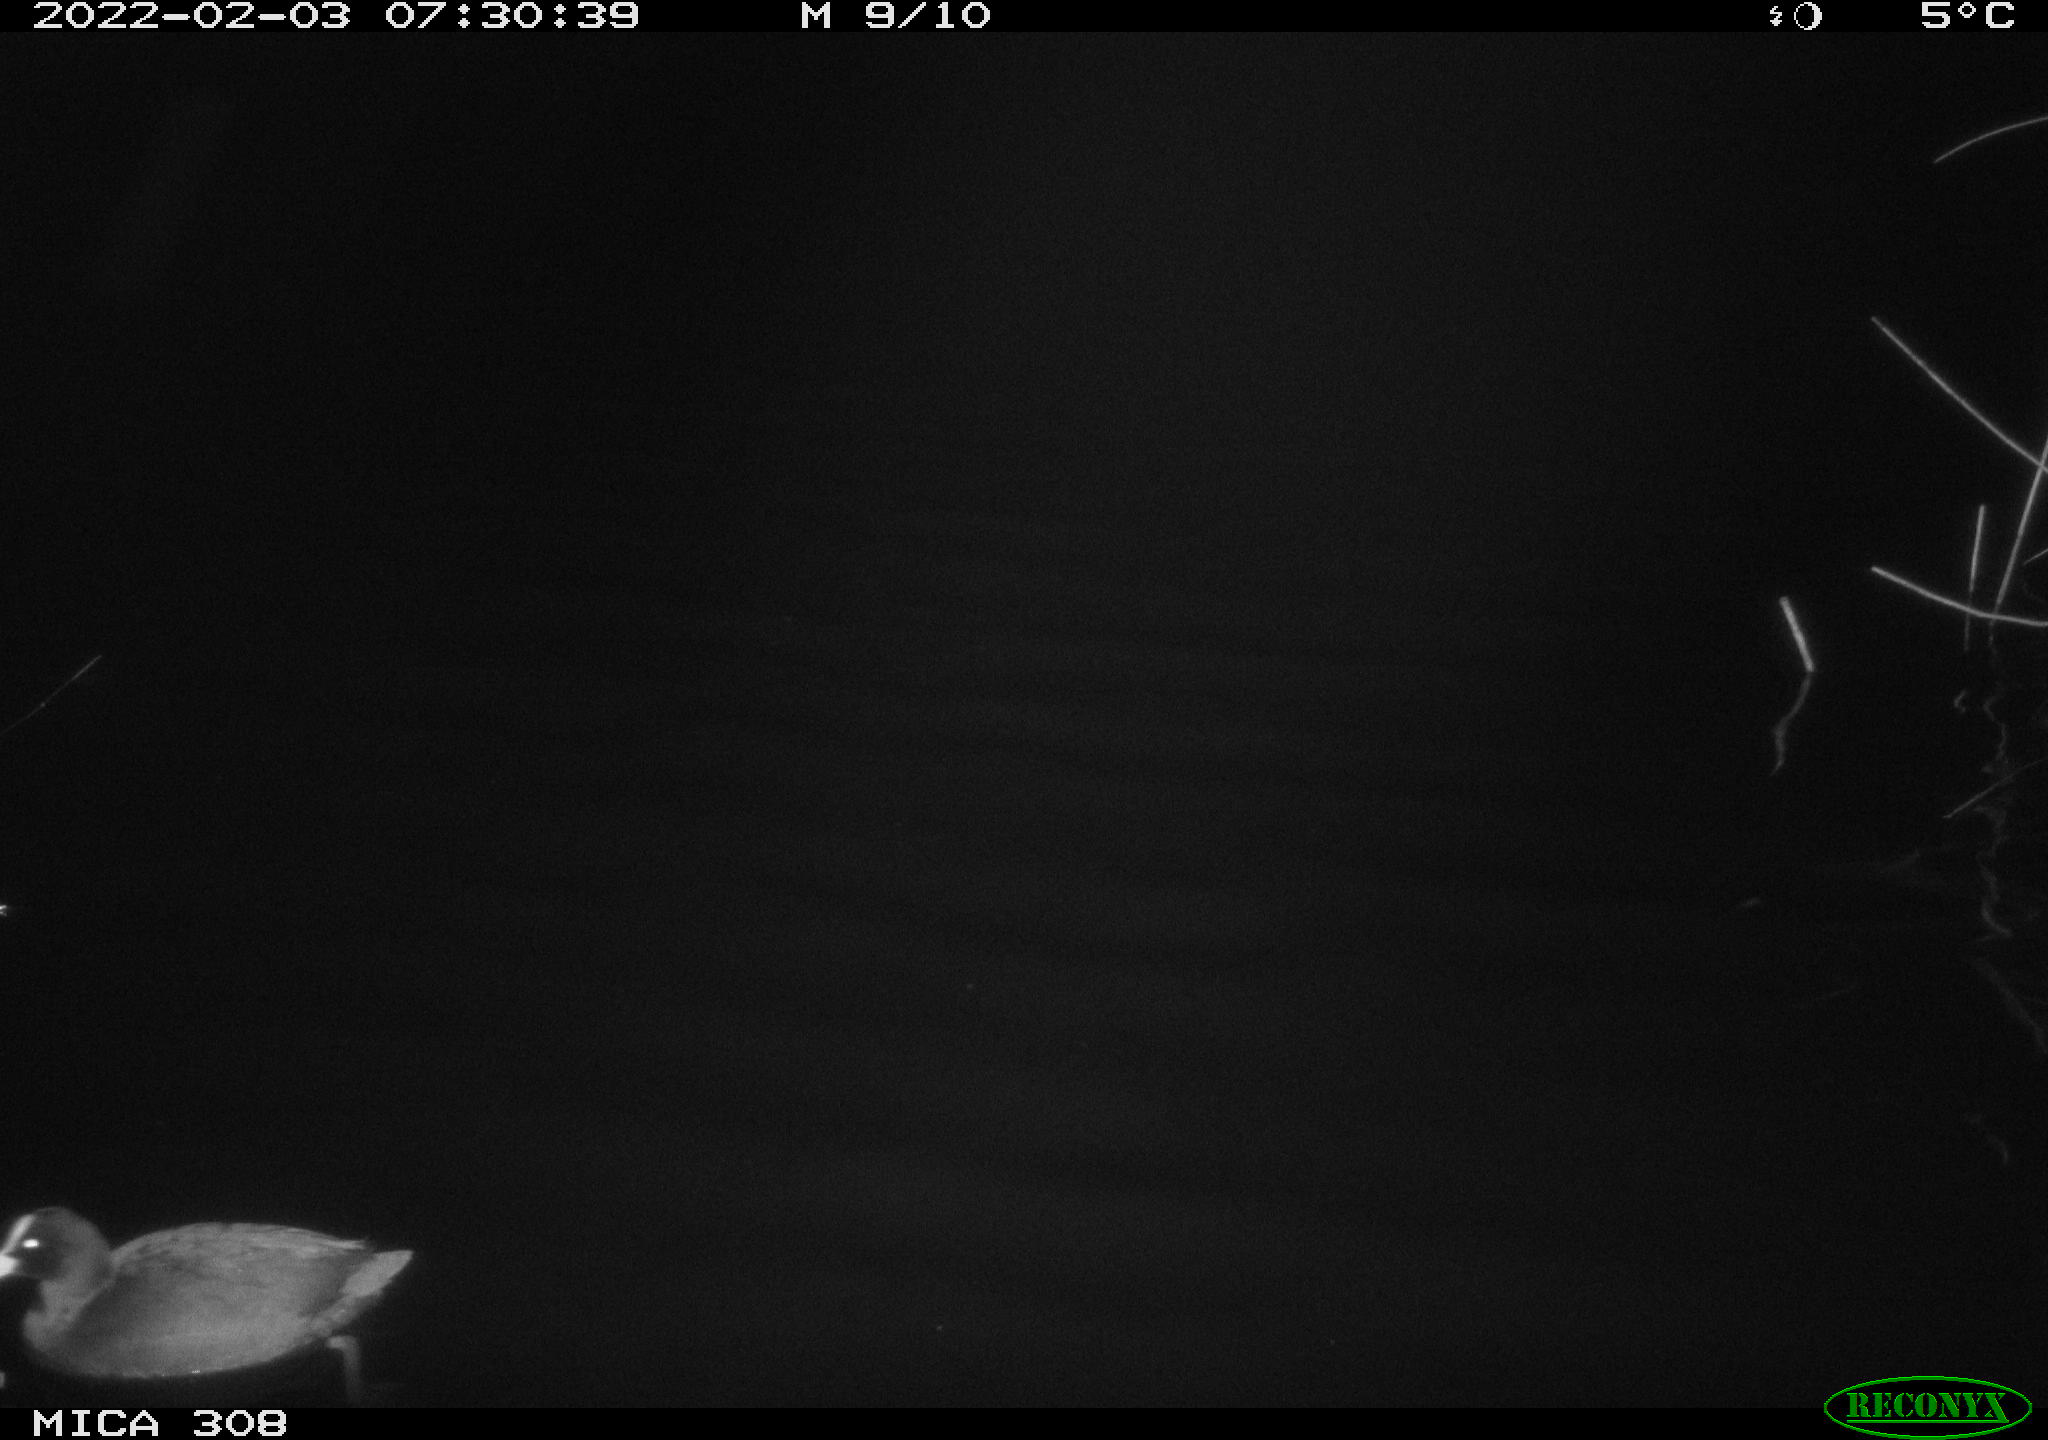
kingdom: Animalia
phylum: Chordata
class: Aves
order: Gruiformes
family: Rallidae
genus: Gallinula
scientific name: Gallinula chloropus
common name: Common moorhen
